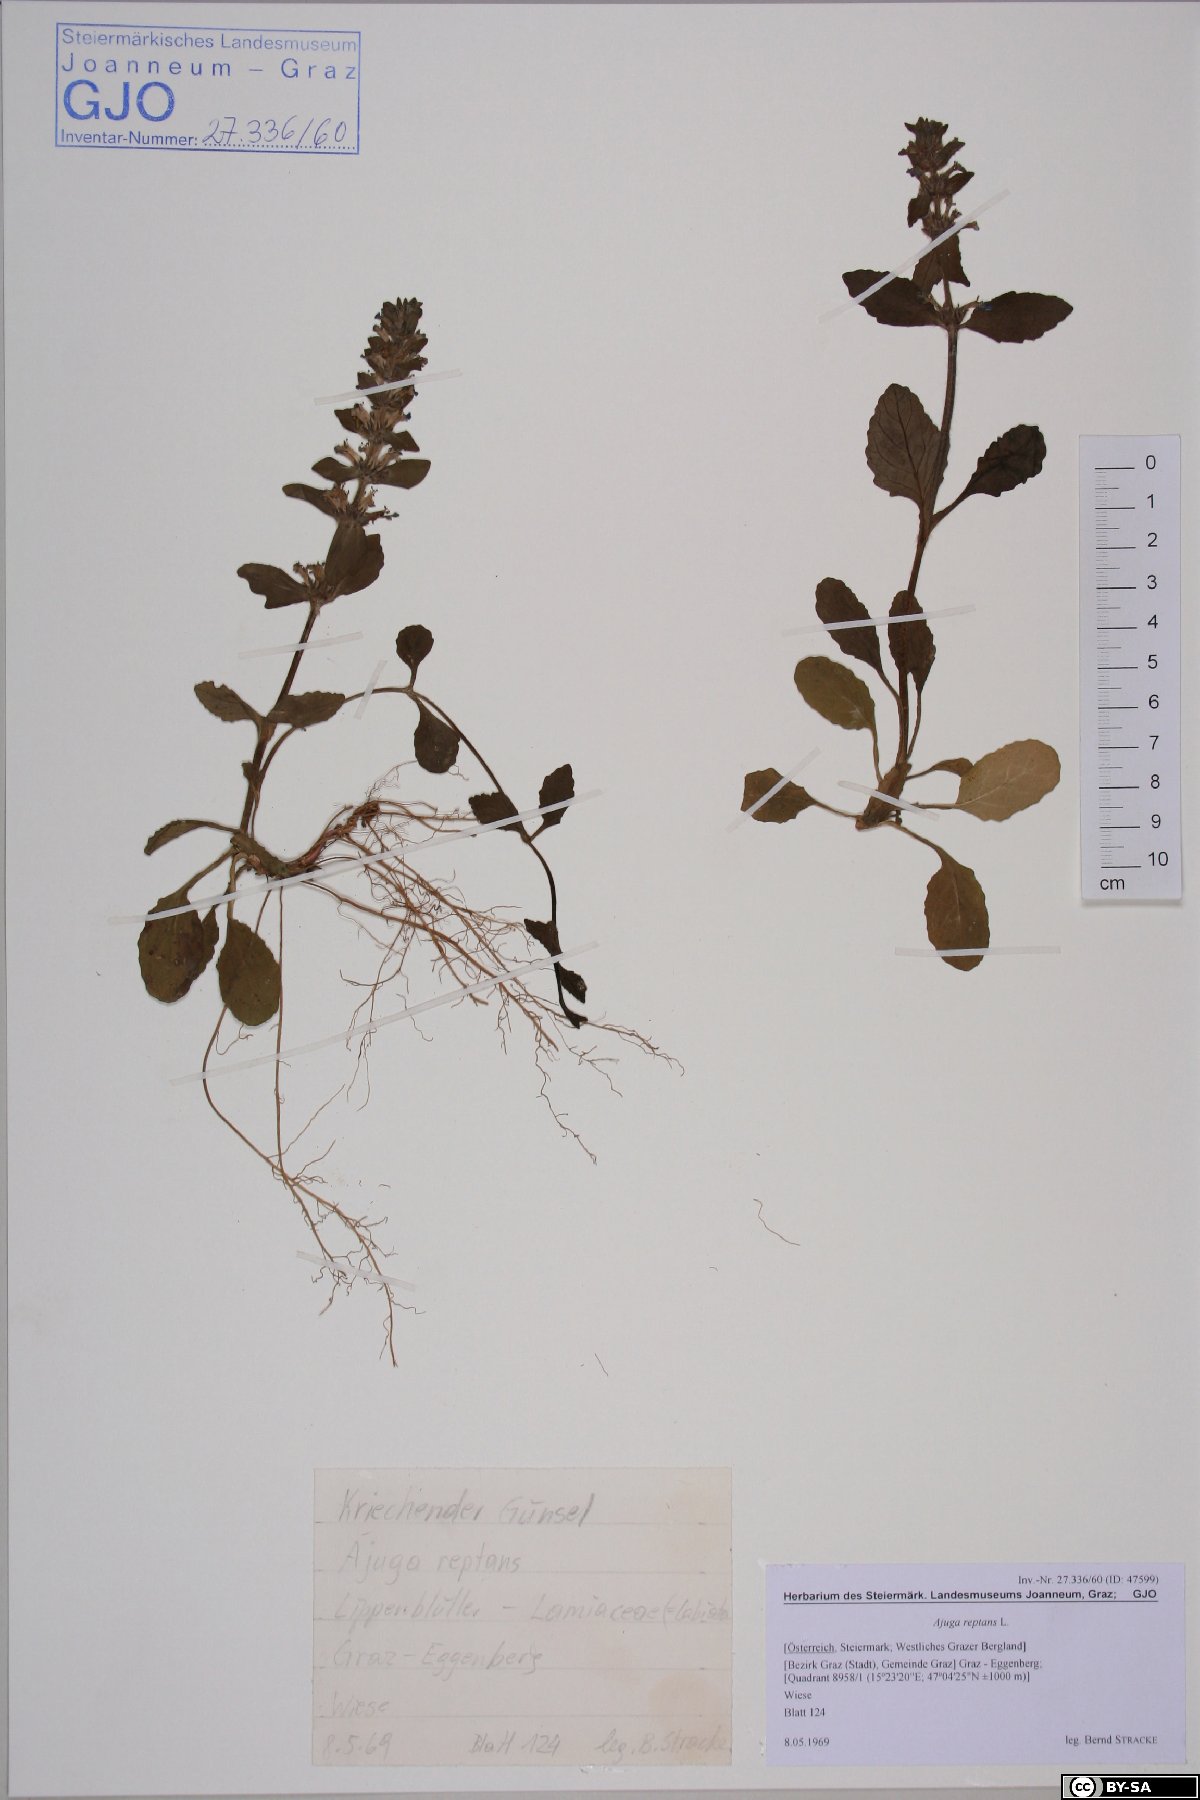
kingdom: Plantae
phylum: Tracheophyta
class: Magnoliopsida
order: Lamiales
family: Lamiaceae
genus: Ajuga
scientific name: Ajuga reptans
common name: Bugle
